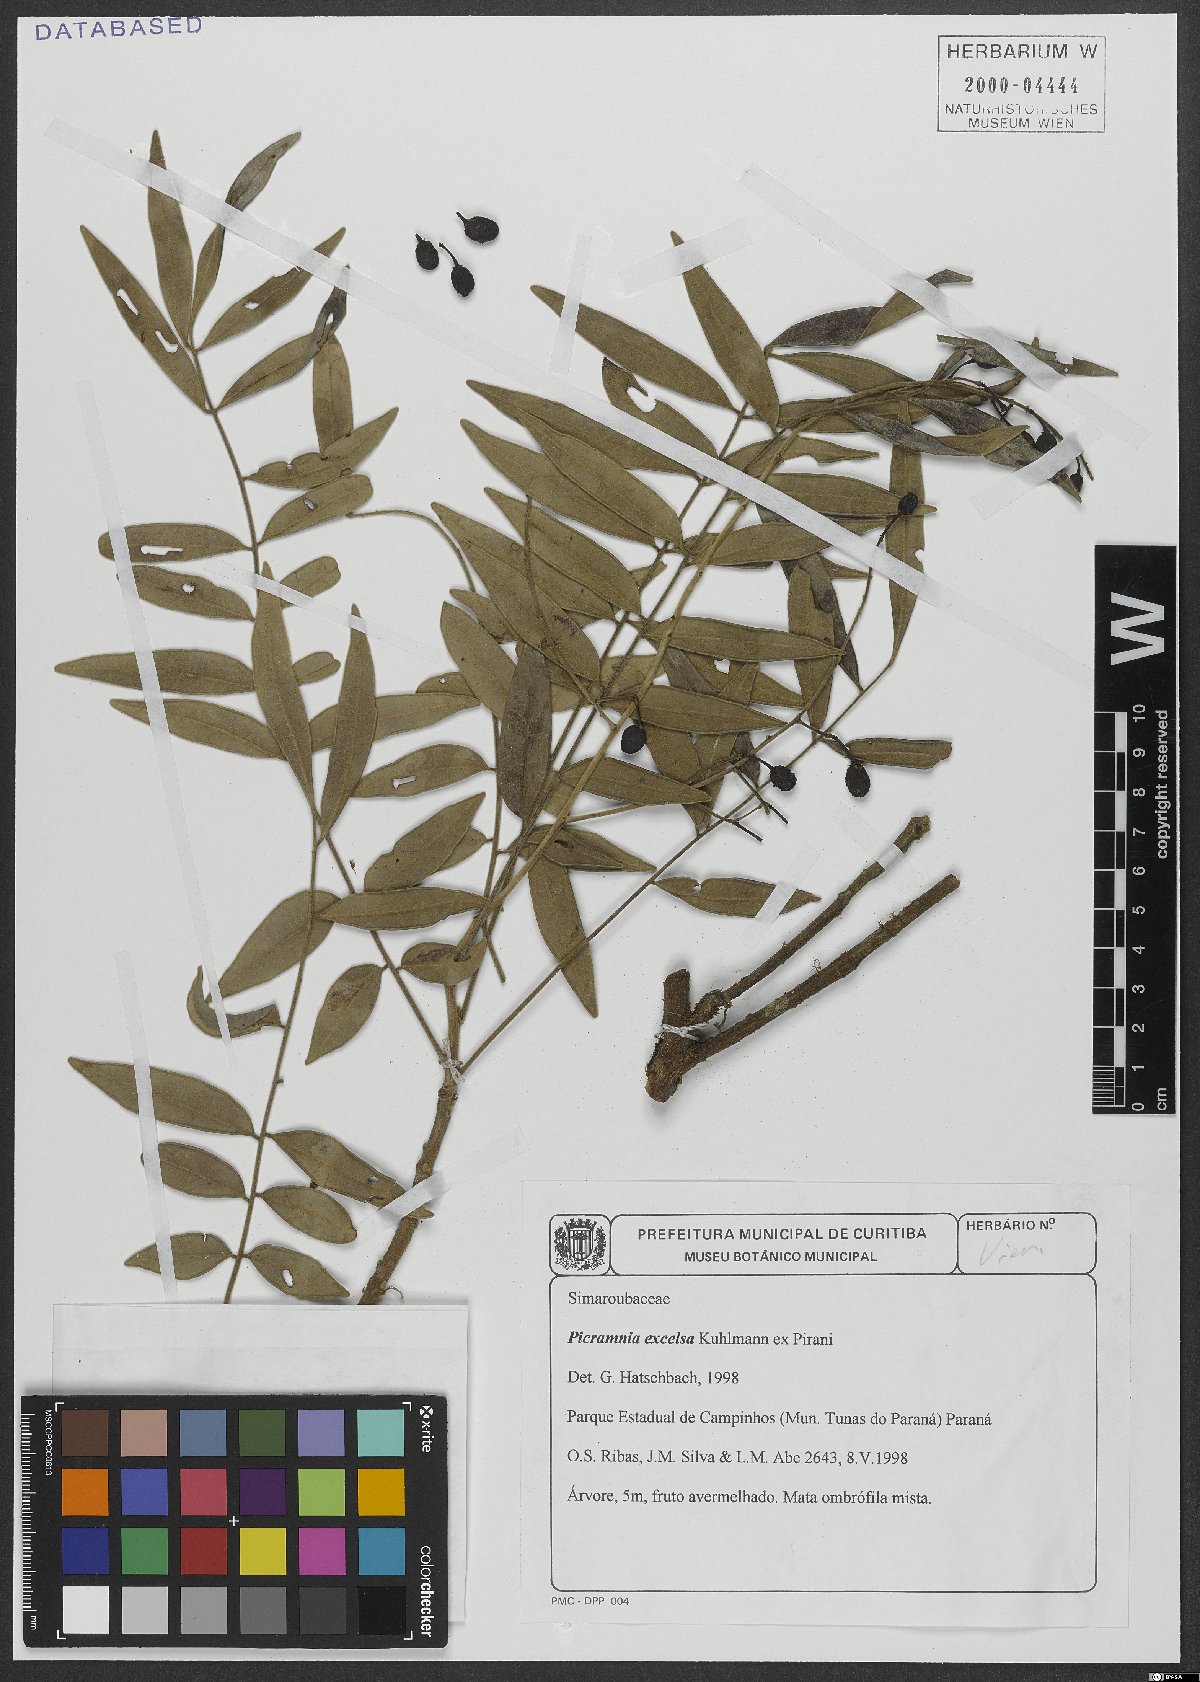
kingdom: Plantae
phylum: Tracheophyta
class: Magnoliopsida
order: Picramniales
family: Picramniaceae
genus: Picramnia
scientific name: Picramnia excelsa
